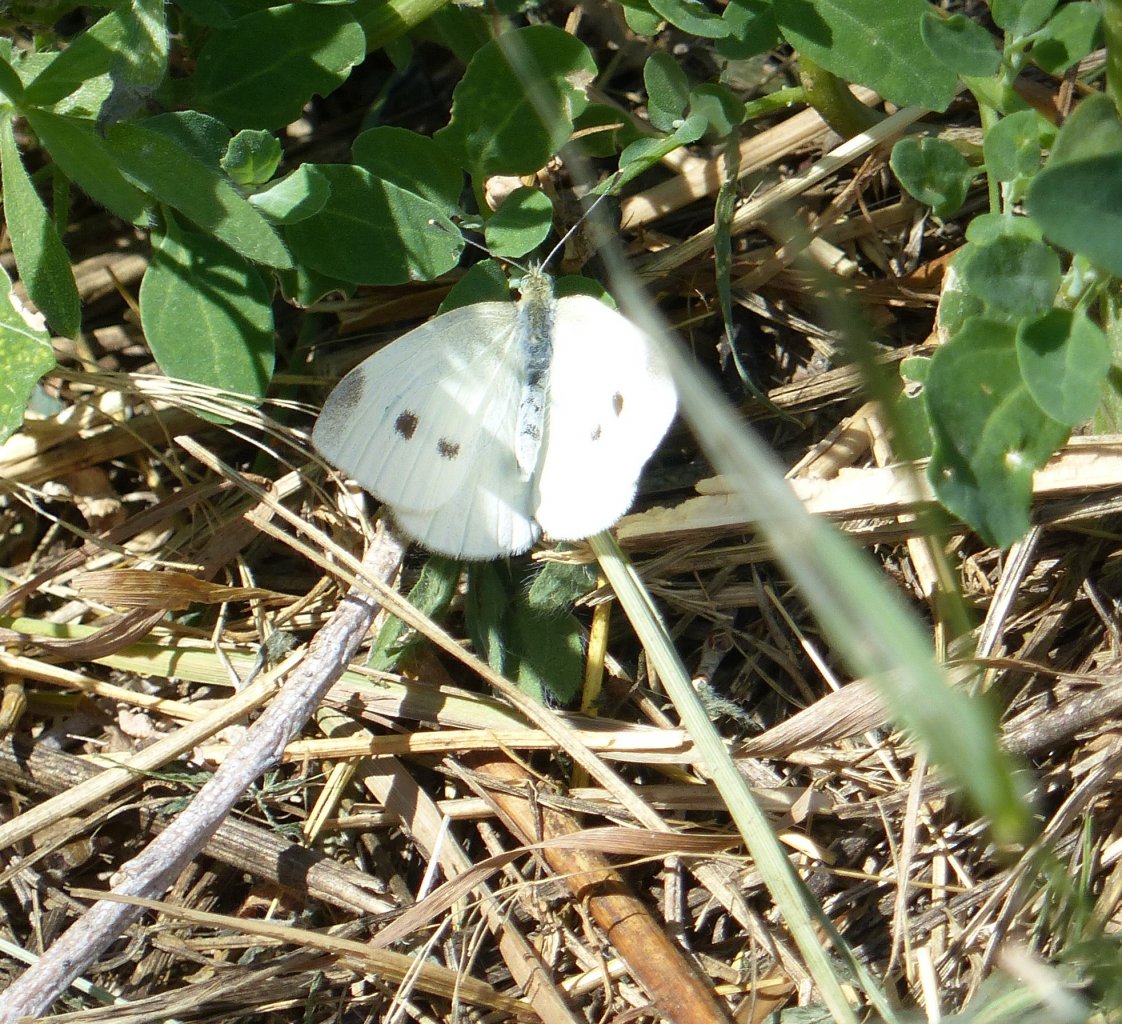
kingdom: Animalia
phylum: Arthropoda
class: Insecta
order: Lepidoptera
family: Pieridae
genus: Pieris
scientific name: Pieris rapae
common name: Cabbage White
